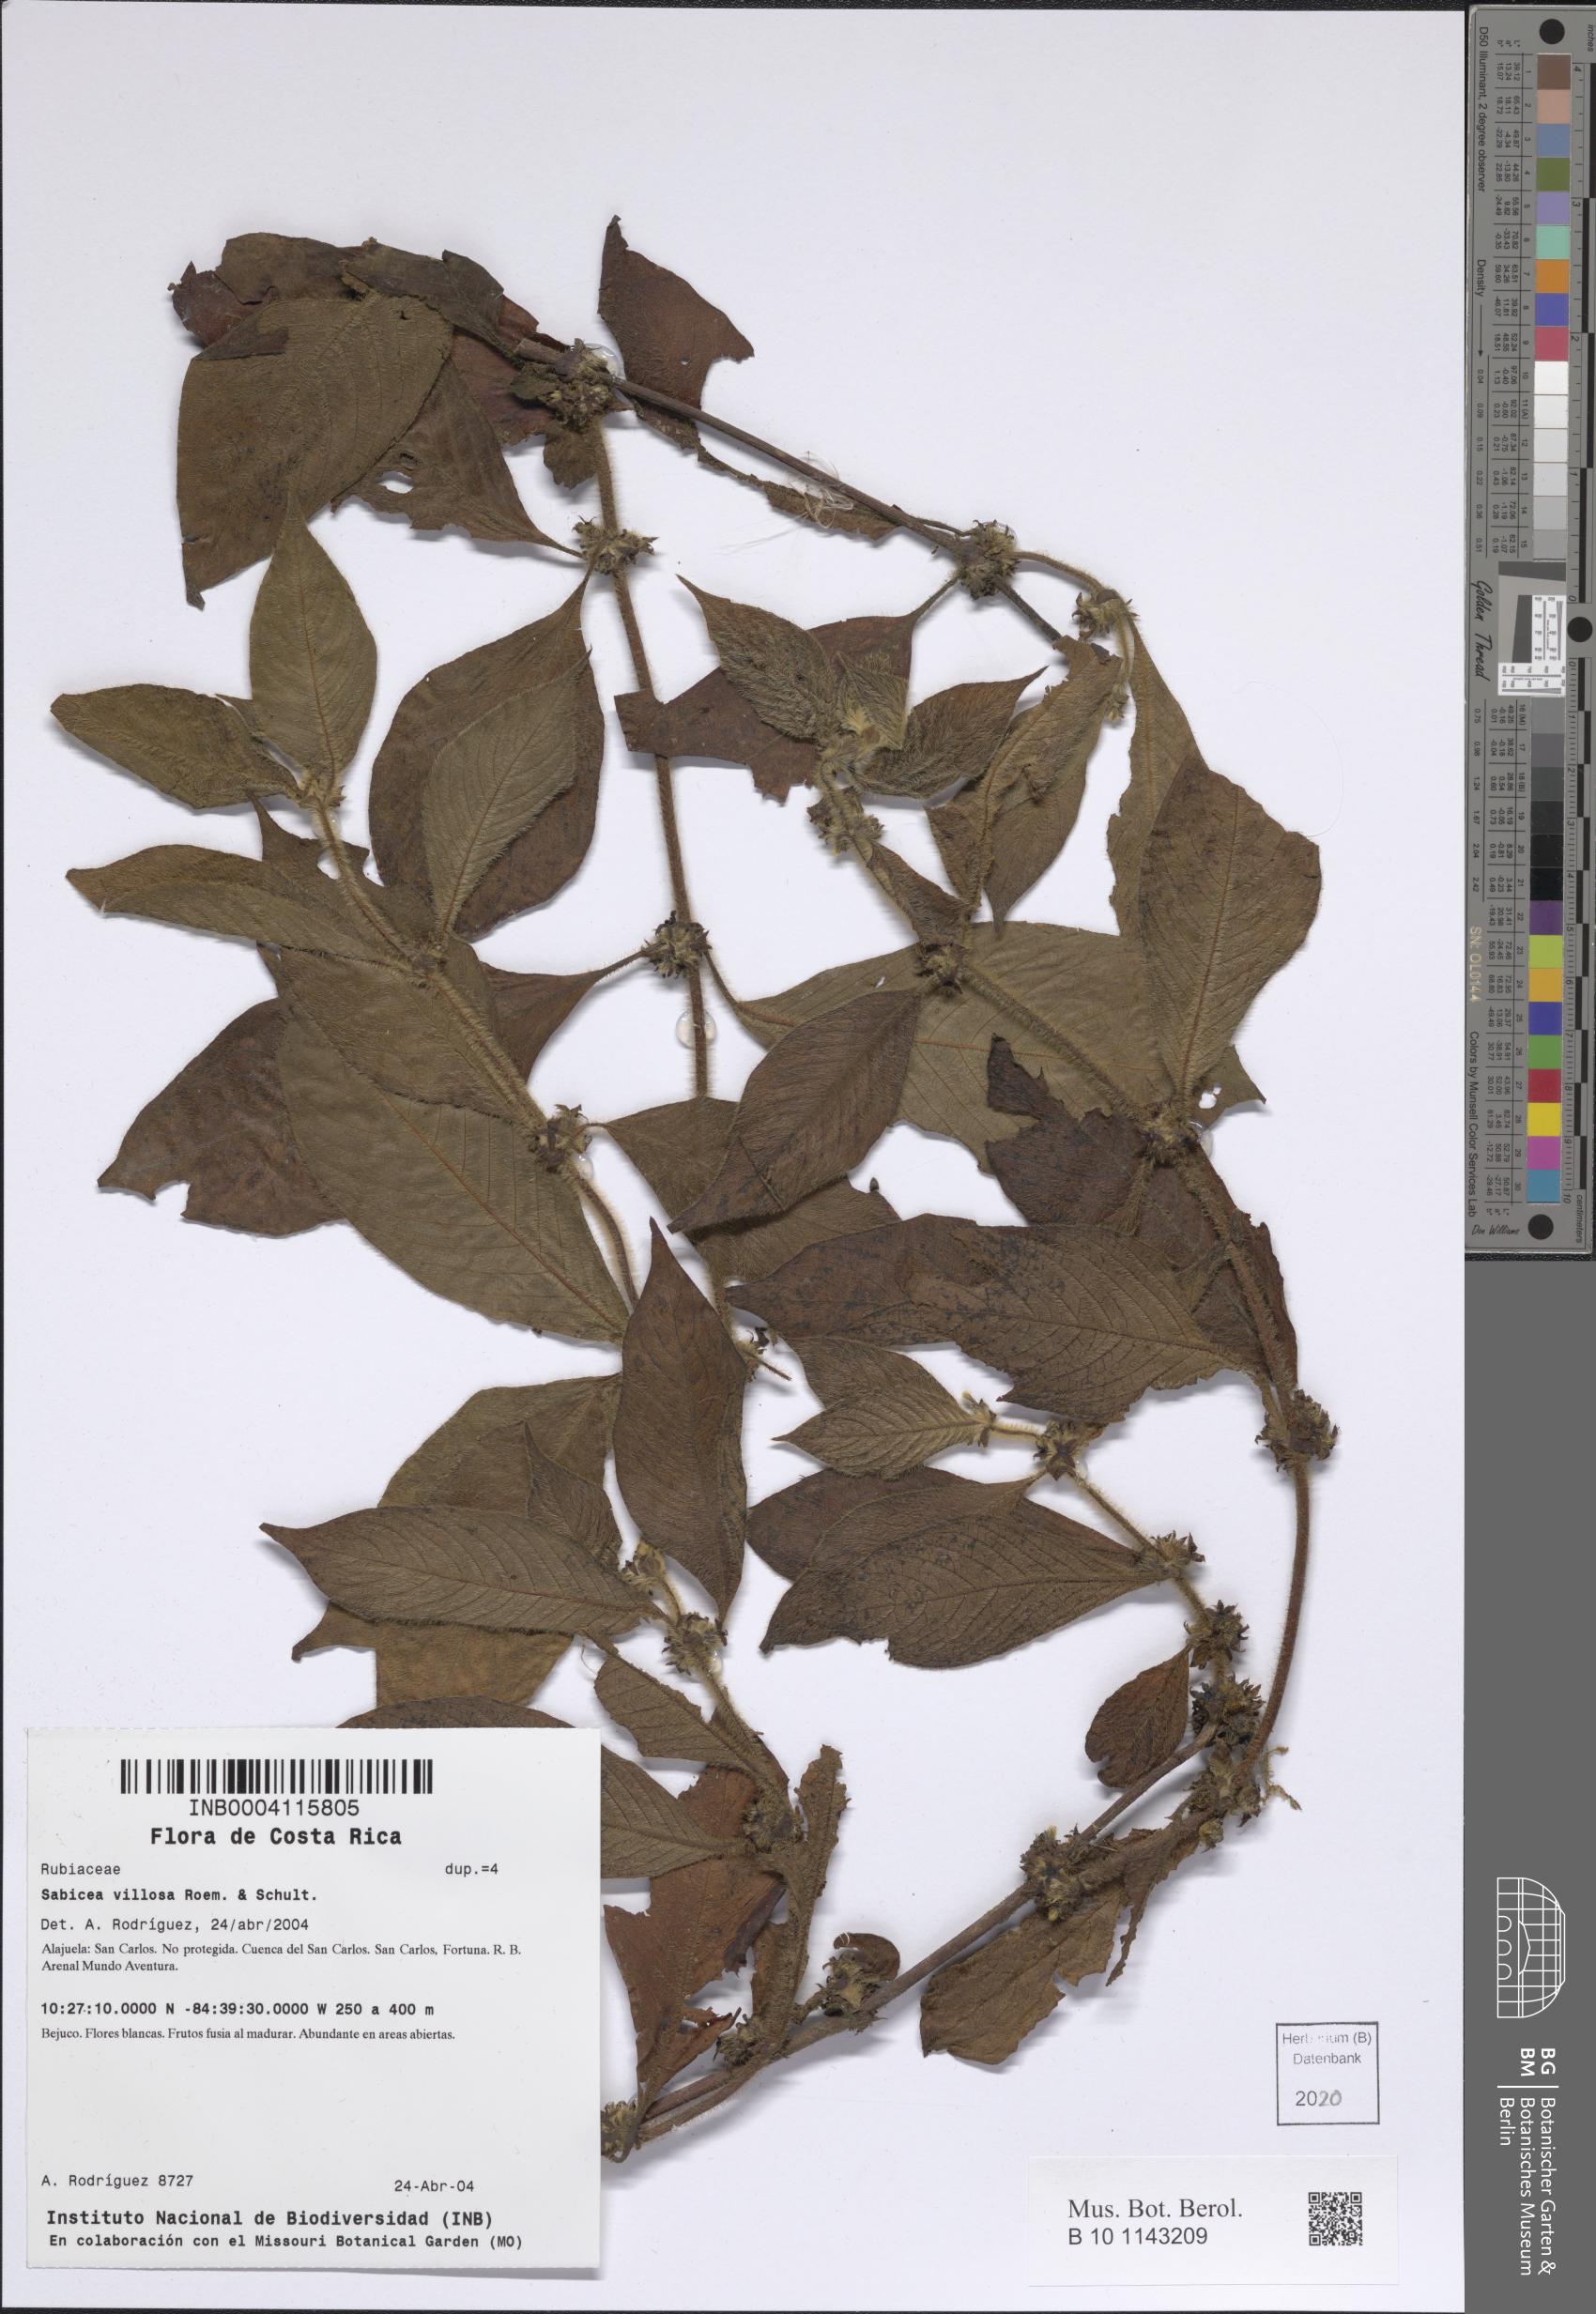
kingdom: Plantae
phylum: Tracheophyta
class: Magnoliopsida
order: Gentianales
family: Rubiaceae
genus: Sabicea
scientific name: Sabicea villosa
